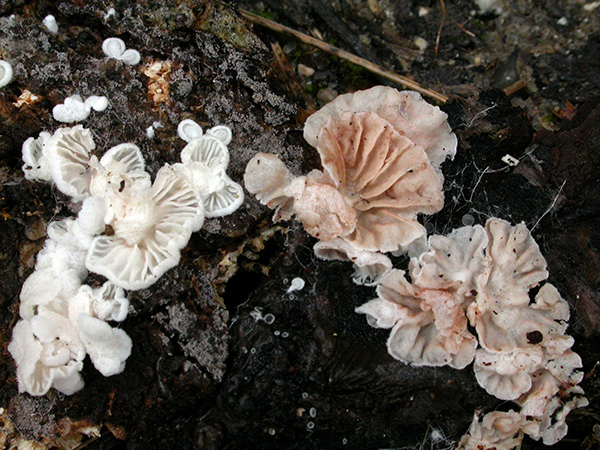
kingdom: Fungi
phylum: Basidiomycota
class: Agaricomycetes
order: Agaricales
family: Entolomataceae
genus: Entoloma
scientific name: Entoloma jahnii
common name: muslinge-rødblad
